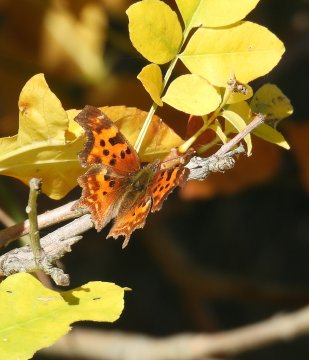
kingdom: Animalia
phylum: Arthropoda
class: Insecta
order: Lepidoptera
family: Nymphalidae
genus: Polygonia
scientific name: Polygonia faunus
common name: Green Comma
